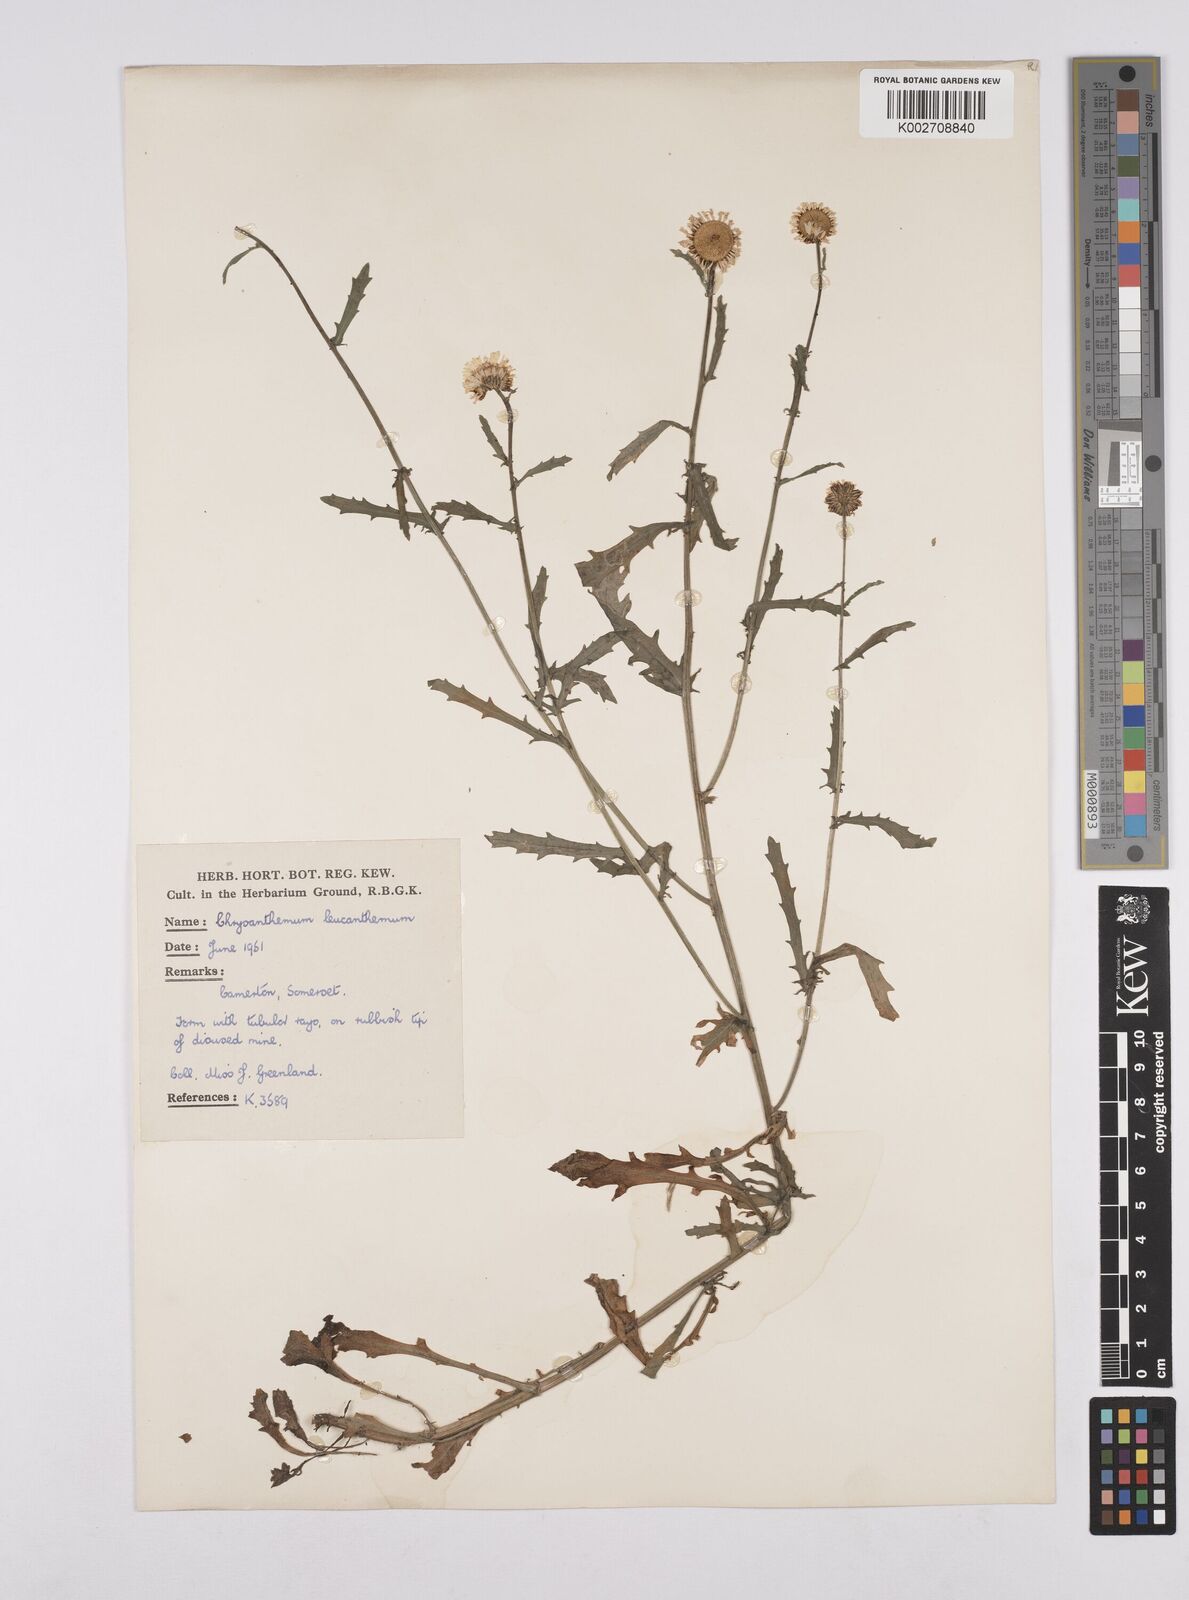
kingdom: Plantae
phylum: Tracheophyta
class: Magnoliopsida
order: Asterales
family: Asteraceae
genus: Leucanthemum
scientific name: Leucanthemum
